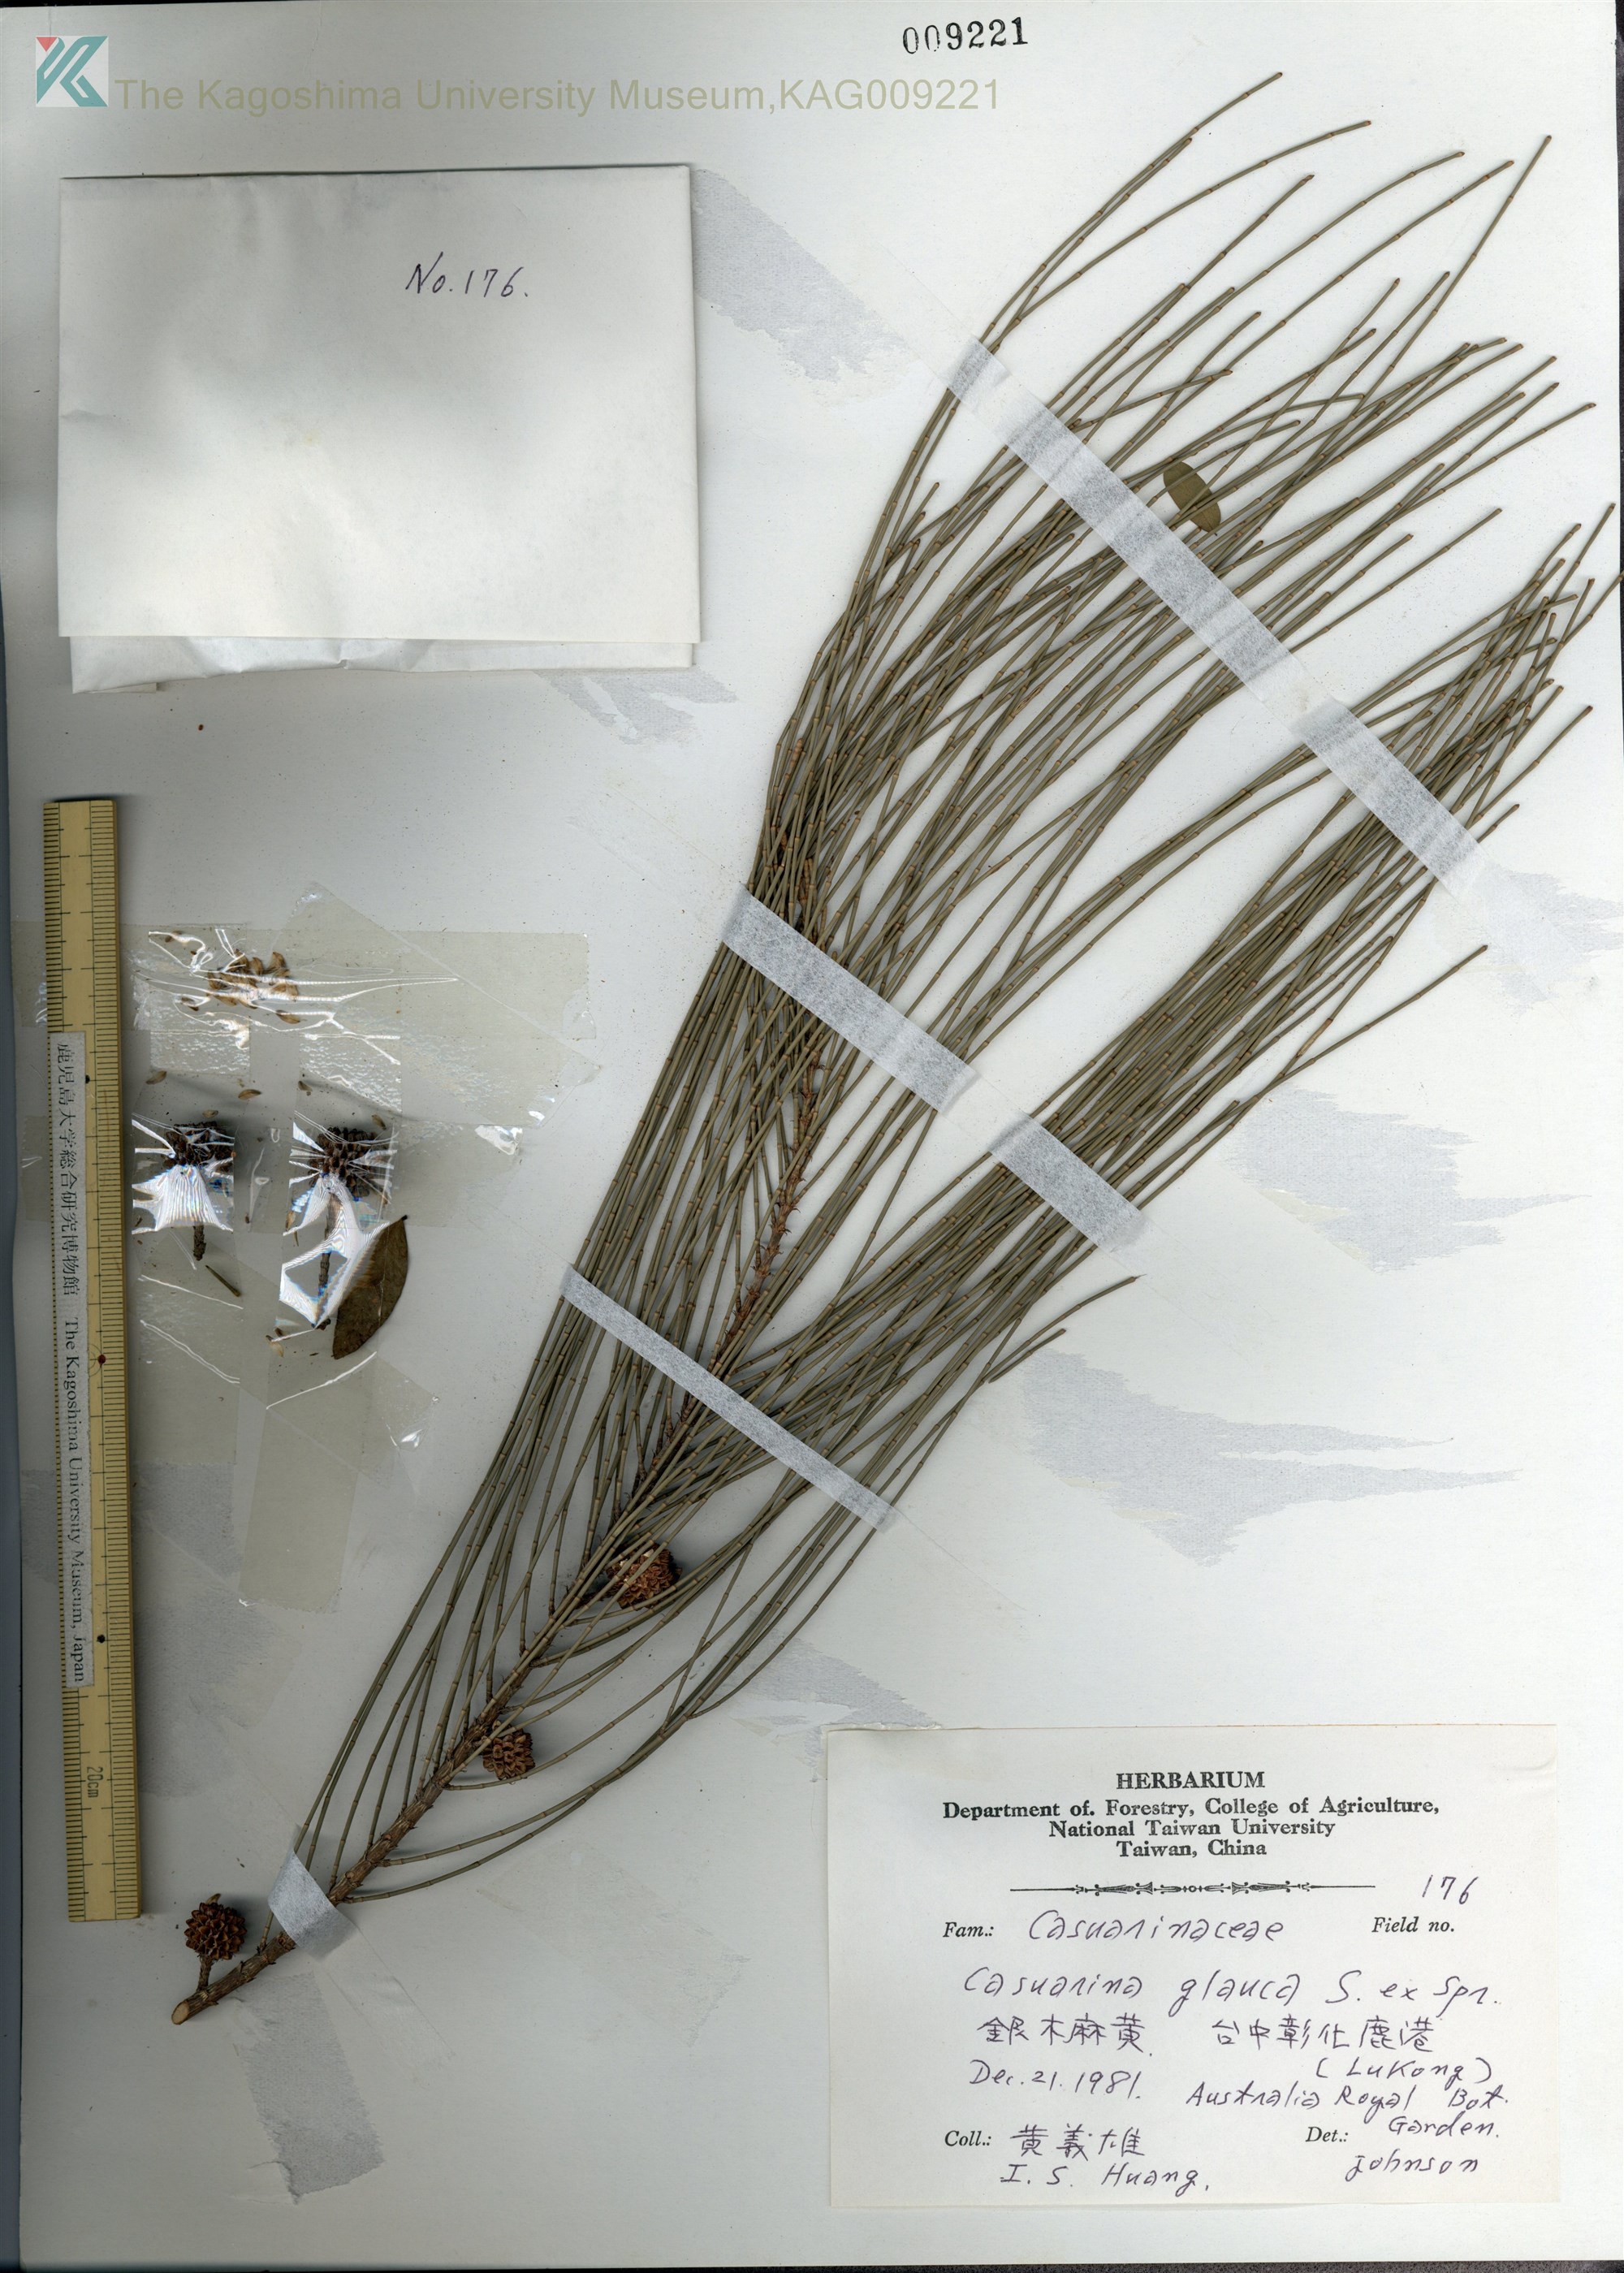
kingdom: Plantae
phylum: Tracheophyta
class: Magnoliopsida
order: Fagales
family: Casuarinaceae
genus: Casuarina
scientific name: Casuarina glauca
